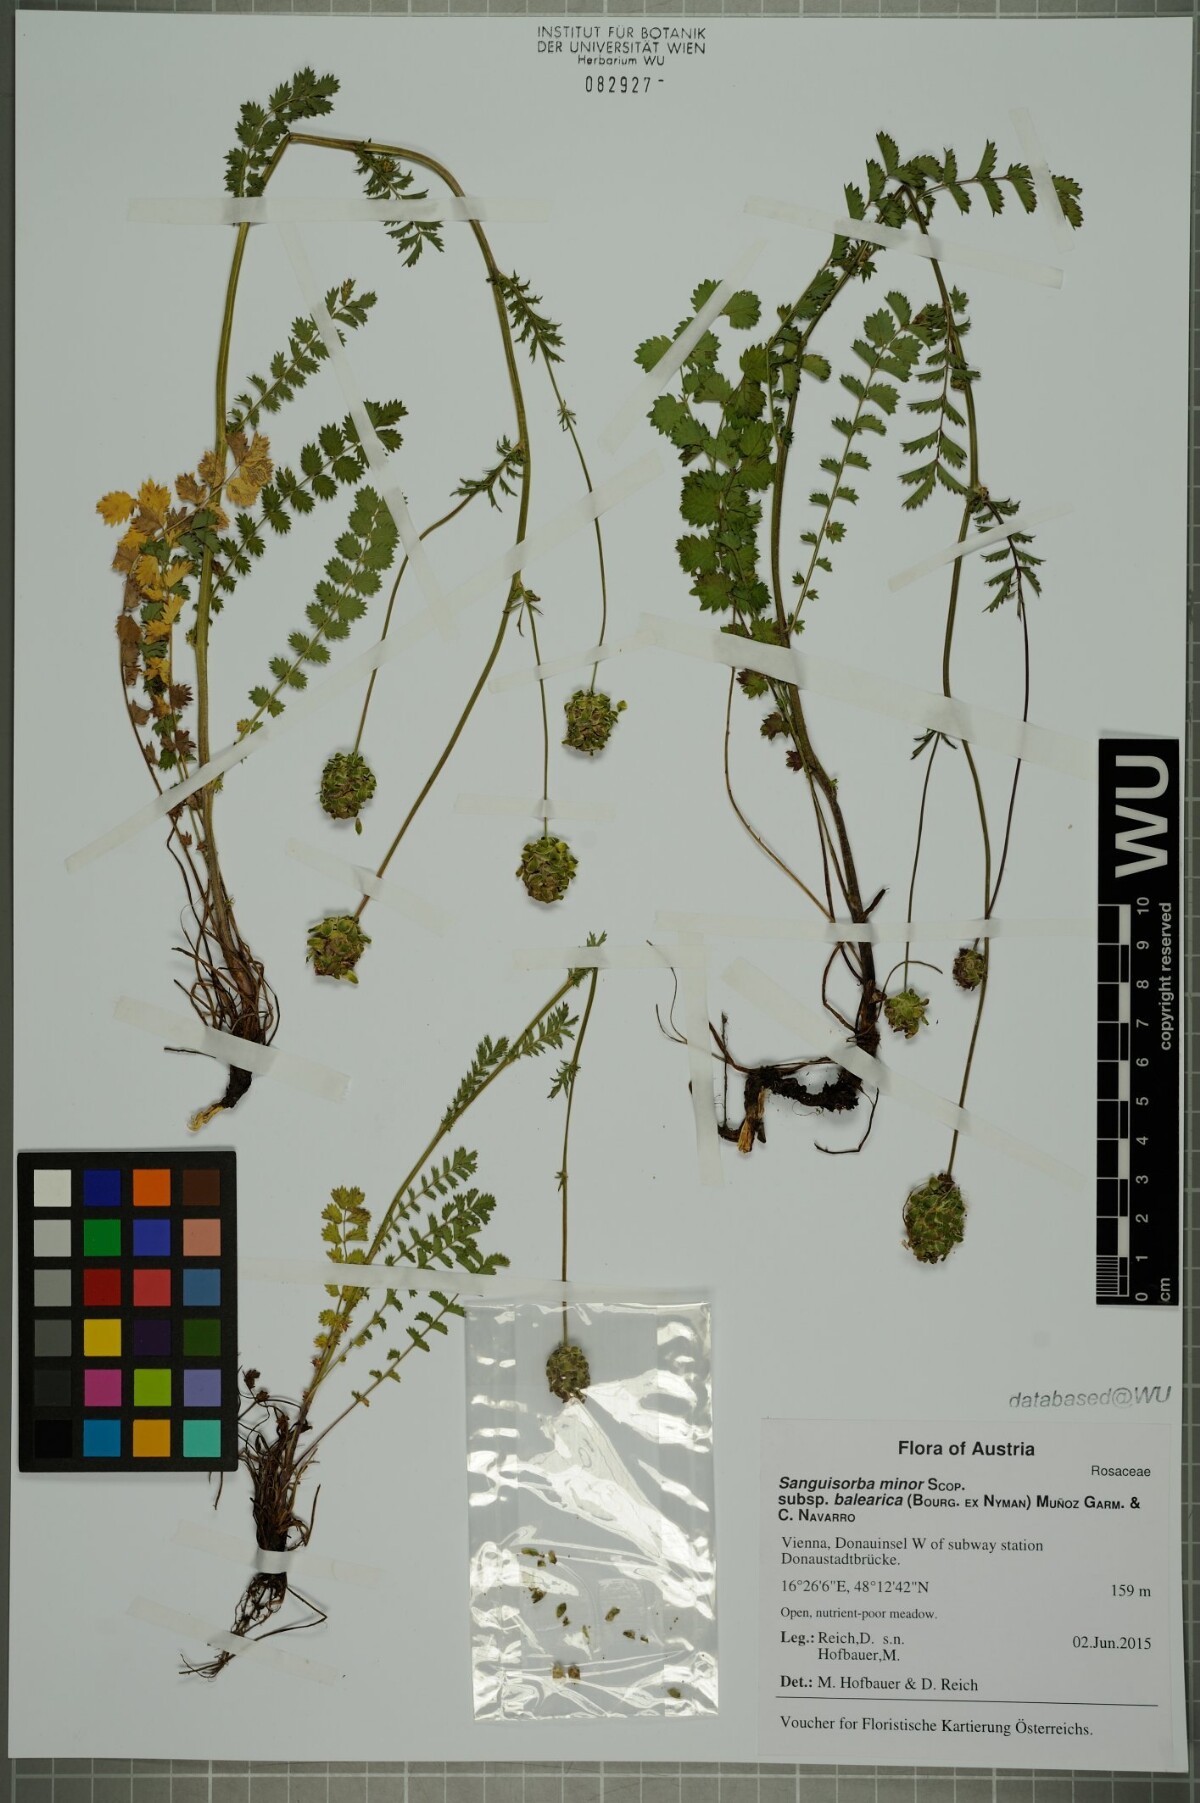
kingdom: Plantae
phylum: Tracheophyta
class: Magnoliopsida
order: Rosales
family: Rosaceae
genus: Poterium
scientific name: Poterium sanguisorba
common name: Salad burnet
